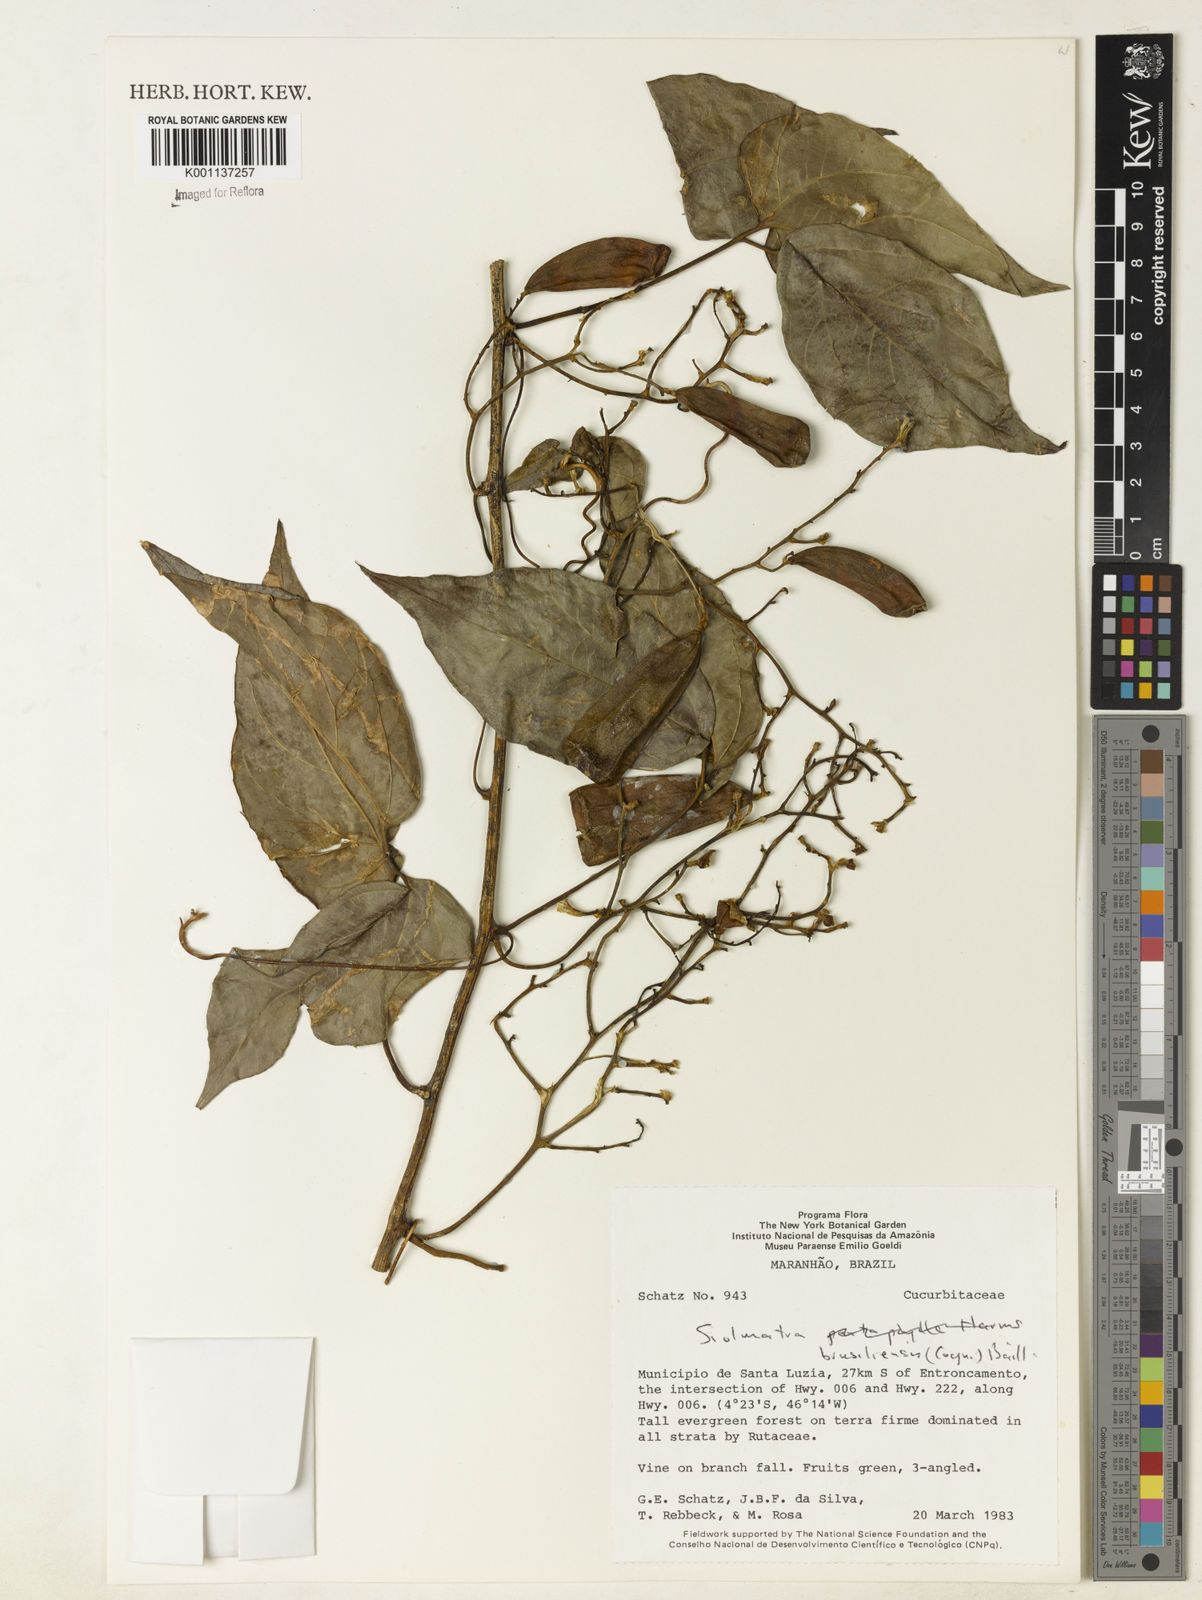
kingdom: Plantae
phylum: Tracheophyta
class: Magnoliopsida
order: Cucurbitales
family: Cucurbitaceae
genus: Siolmatra
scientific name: Siolmatra brasiliensis
